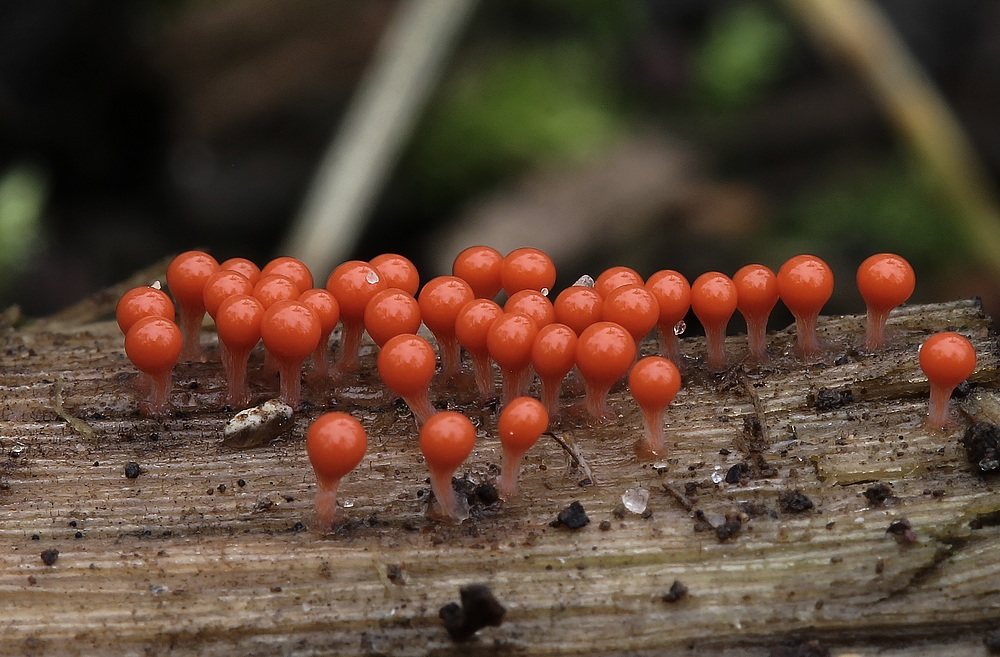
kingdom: Protozoa
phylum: Mycetozoa
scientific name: Mycetozoa
